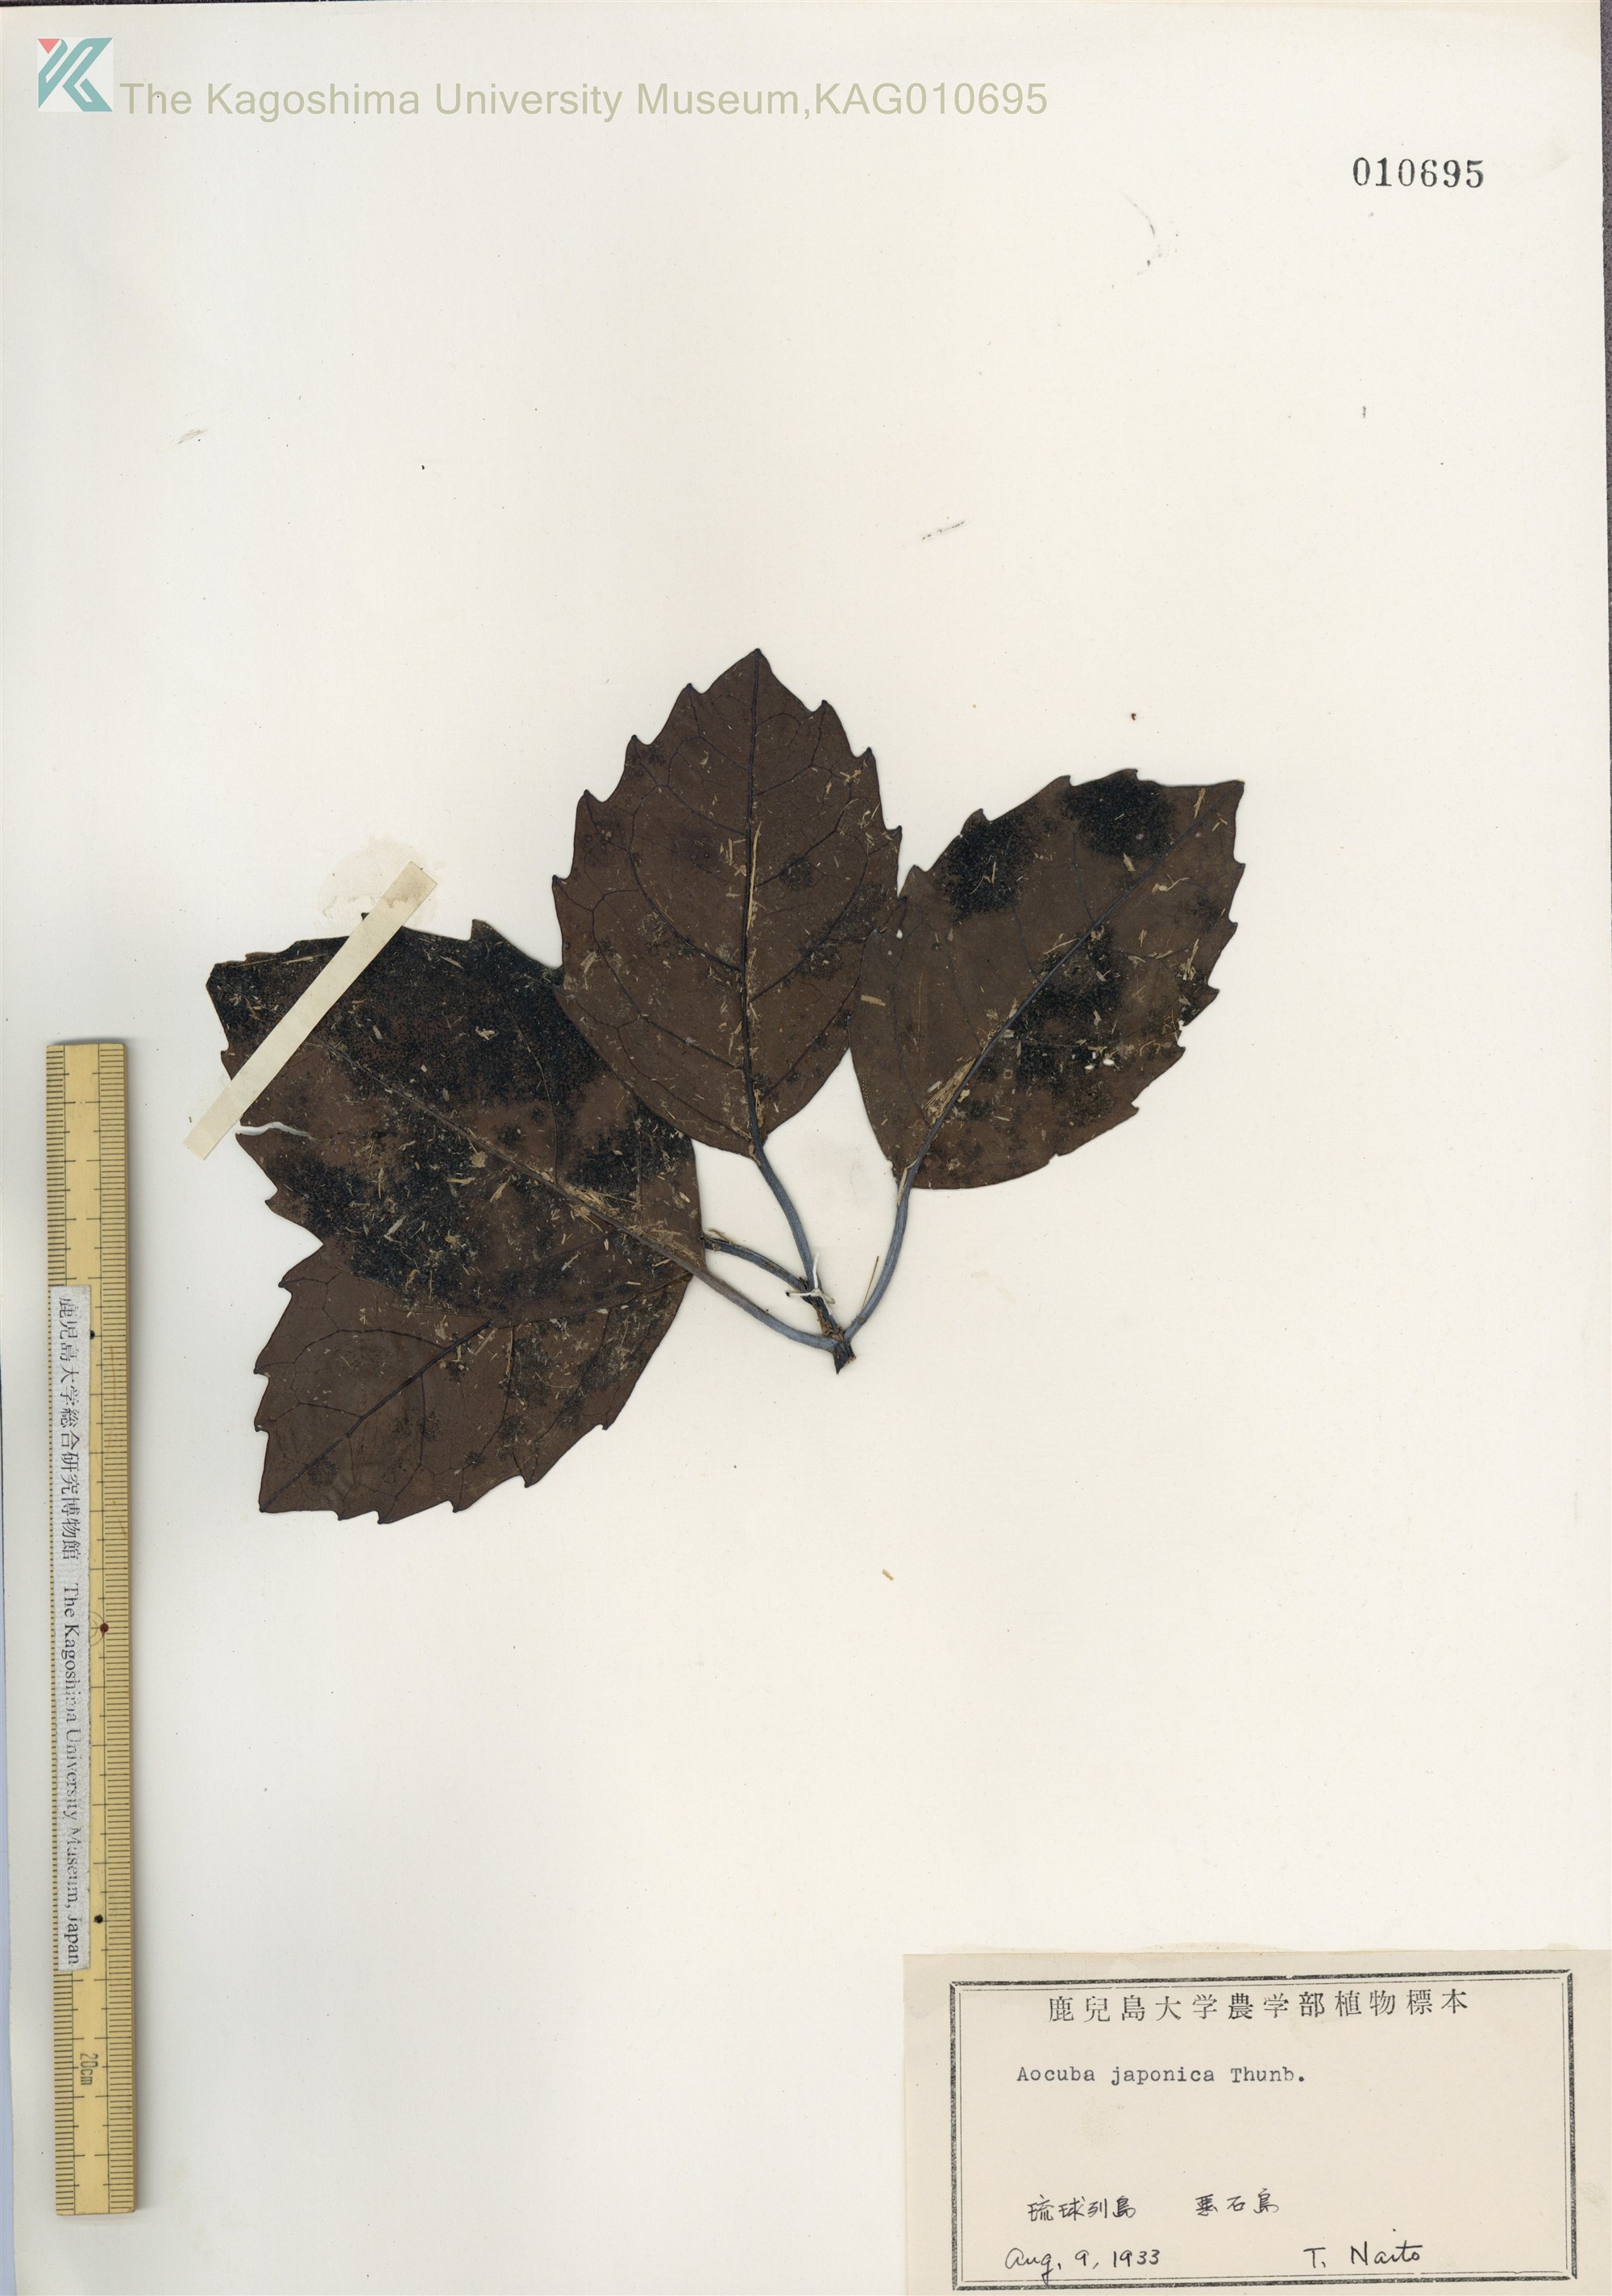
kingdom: Plantae
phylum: Tracheophyta
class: Magnoliopsida
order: Garryales
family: Garryaceae
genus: Aucuba
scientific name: Aucuba japonica
